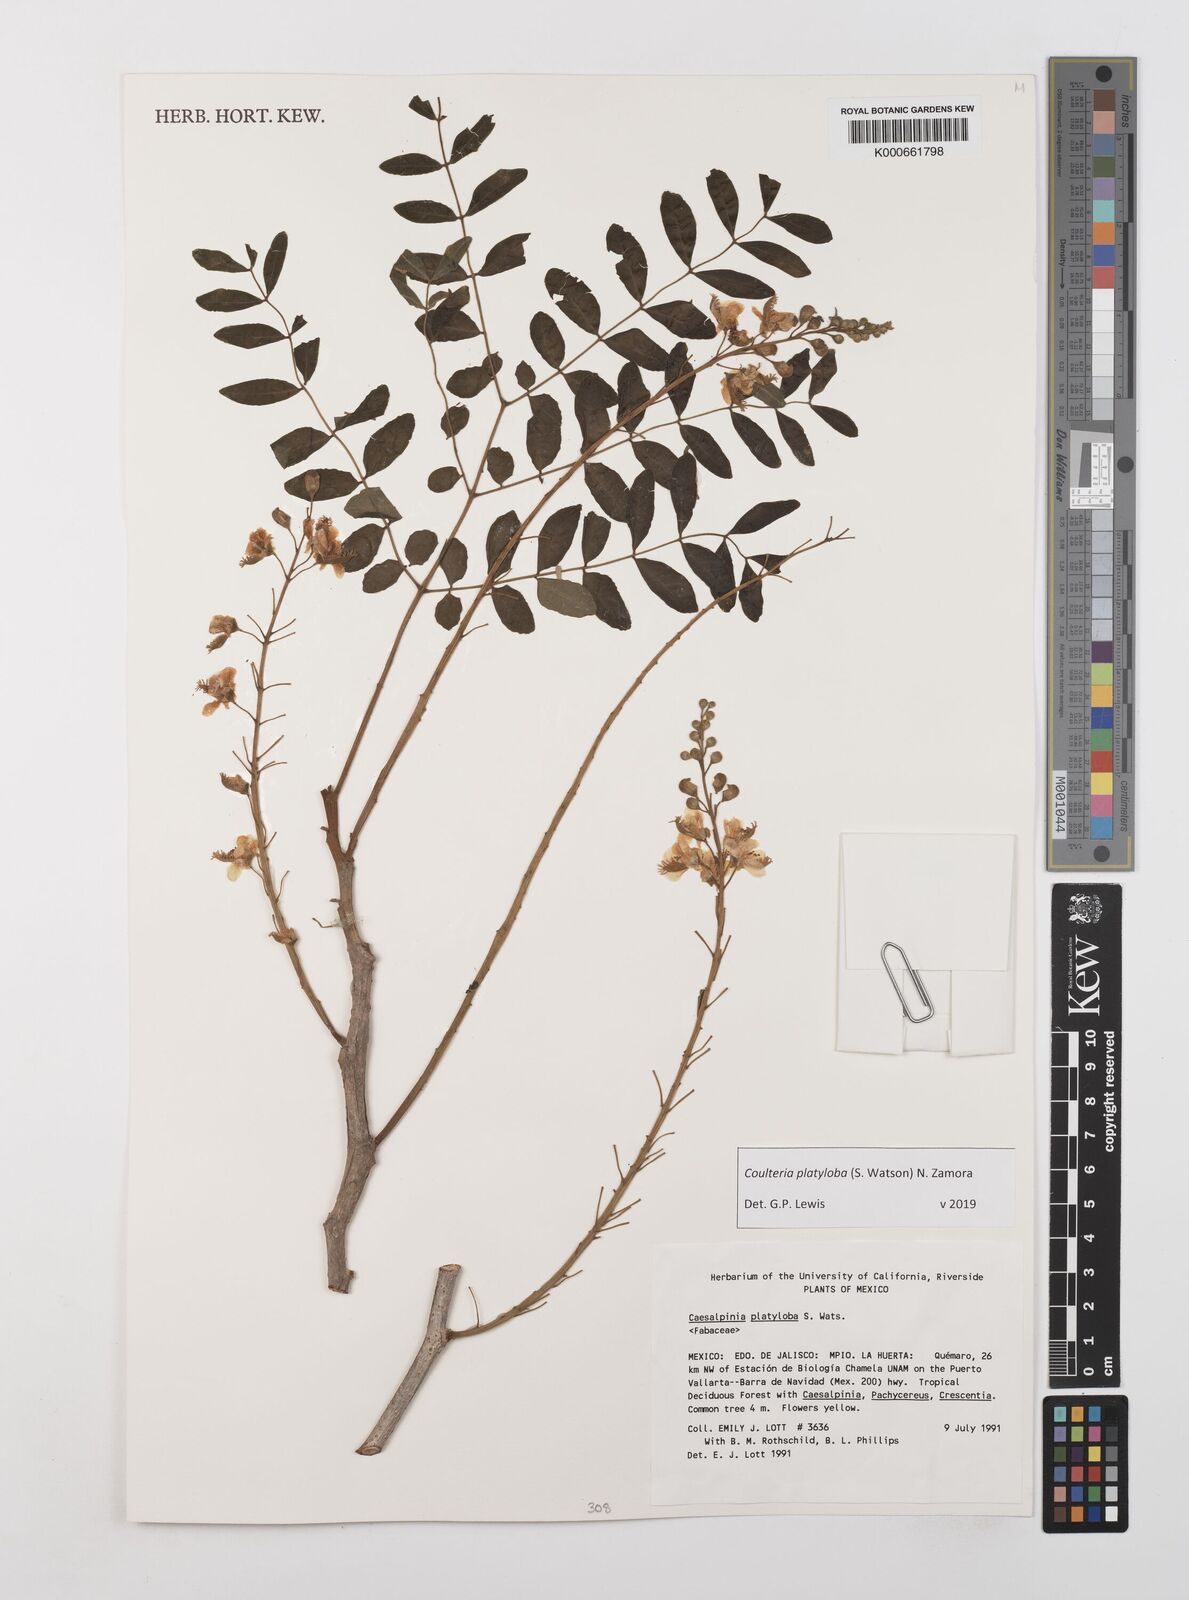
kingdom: Plantae
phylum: Tracheophyta
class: Magnoliopsida
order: Fabales
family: Fabaceae
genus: Coulteria
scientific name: Coulteria platyloba
